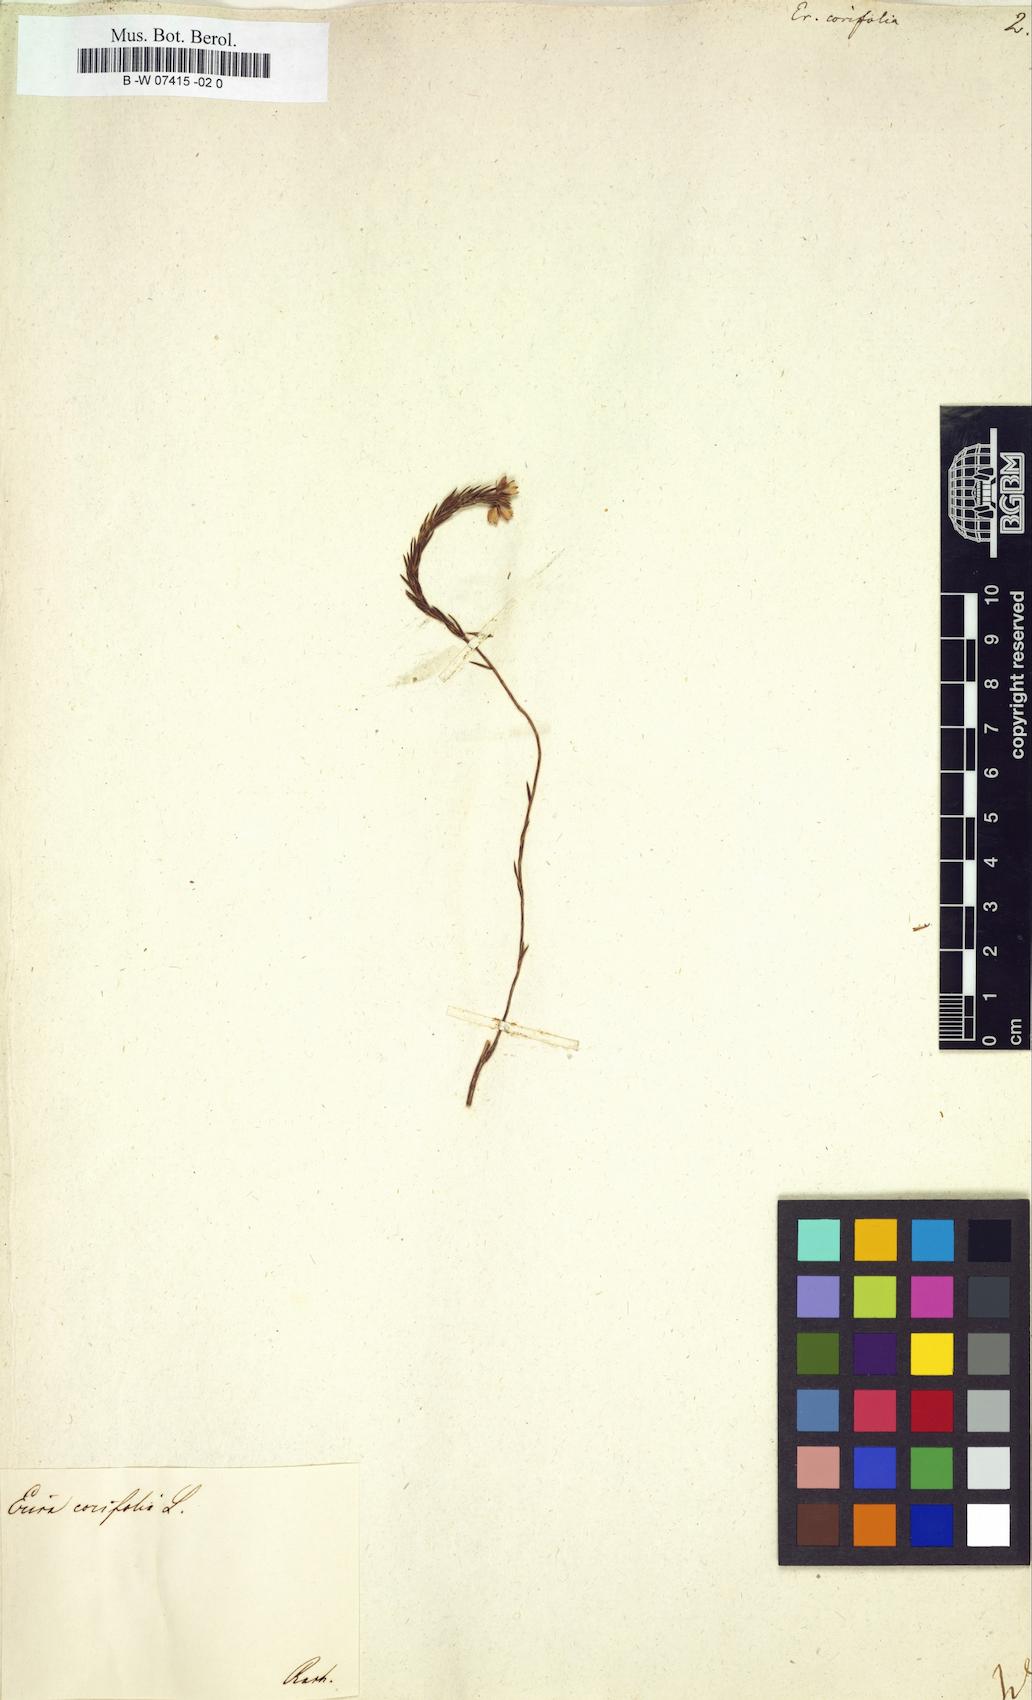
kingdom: Plantae
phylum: Tracheophyta
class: Magnoliopsida
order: Ericales
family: Ericaceae
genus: Erica
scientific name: Erica corifolia
